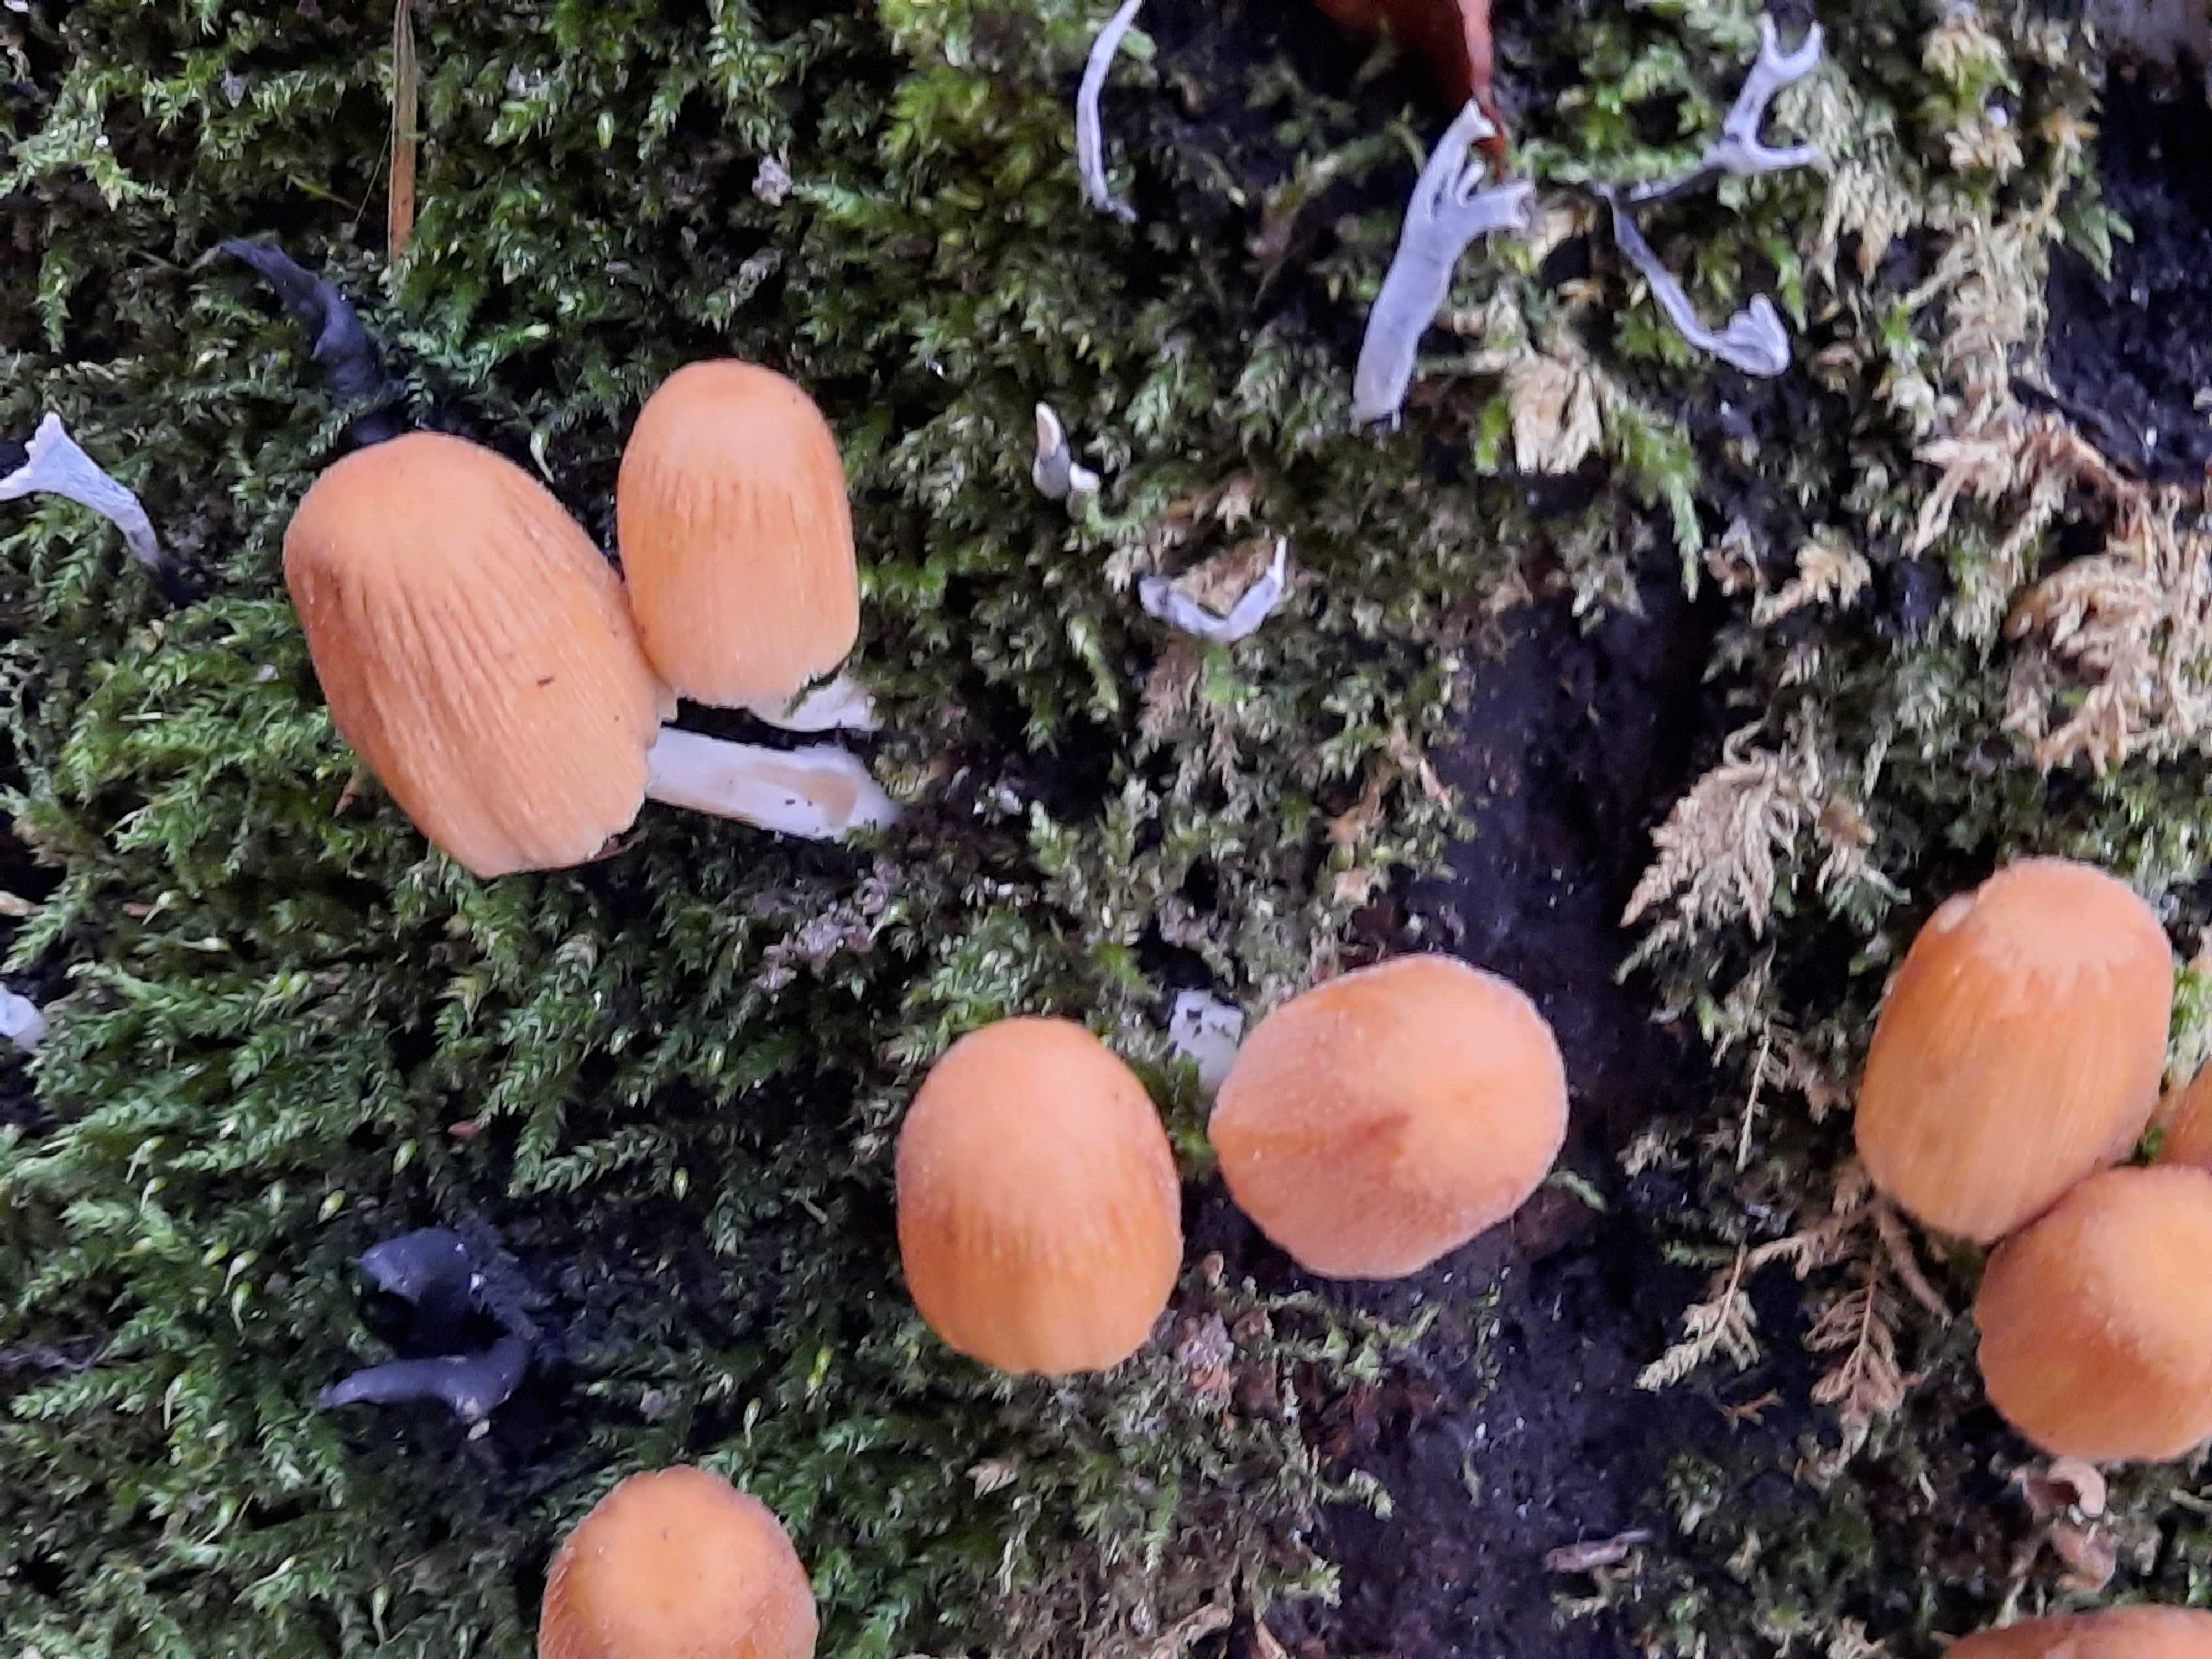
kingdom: Fungi
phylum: Basidiomycota
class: Agaricomycetes
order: Agaricales
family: Psathyrellaceae
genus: Coprinellus
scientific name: Coprinellus micaceus
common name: glimmer-blækhat
